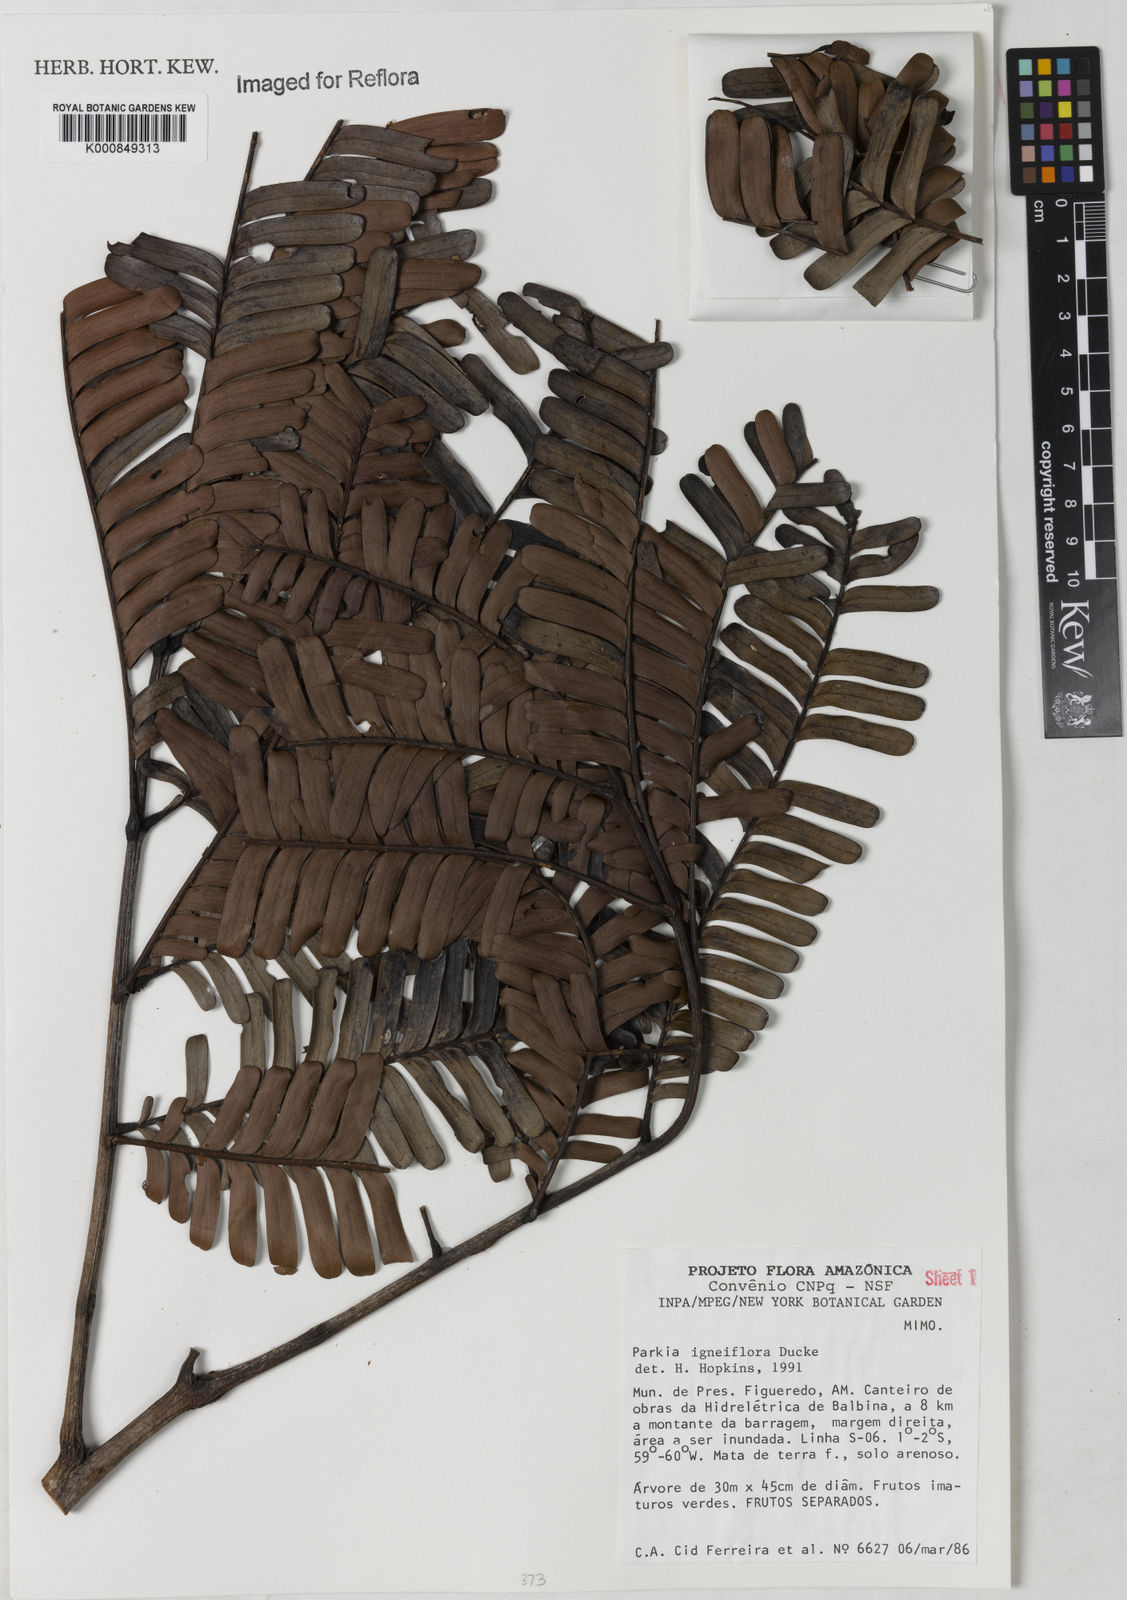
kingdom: Plantae
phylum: Tracheophyta
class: Magnoliopsida
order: Fabales
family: Fabaceae
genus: Parkia
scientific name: Parkia igneiflora
